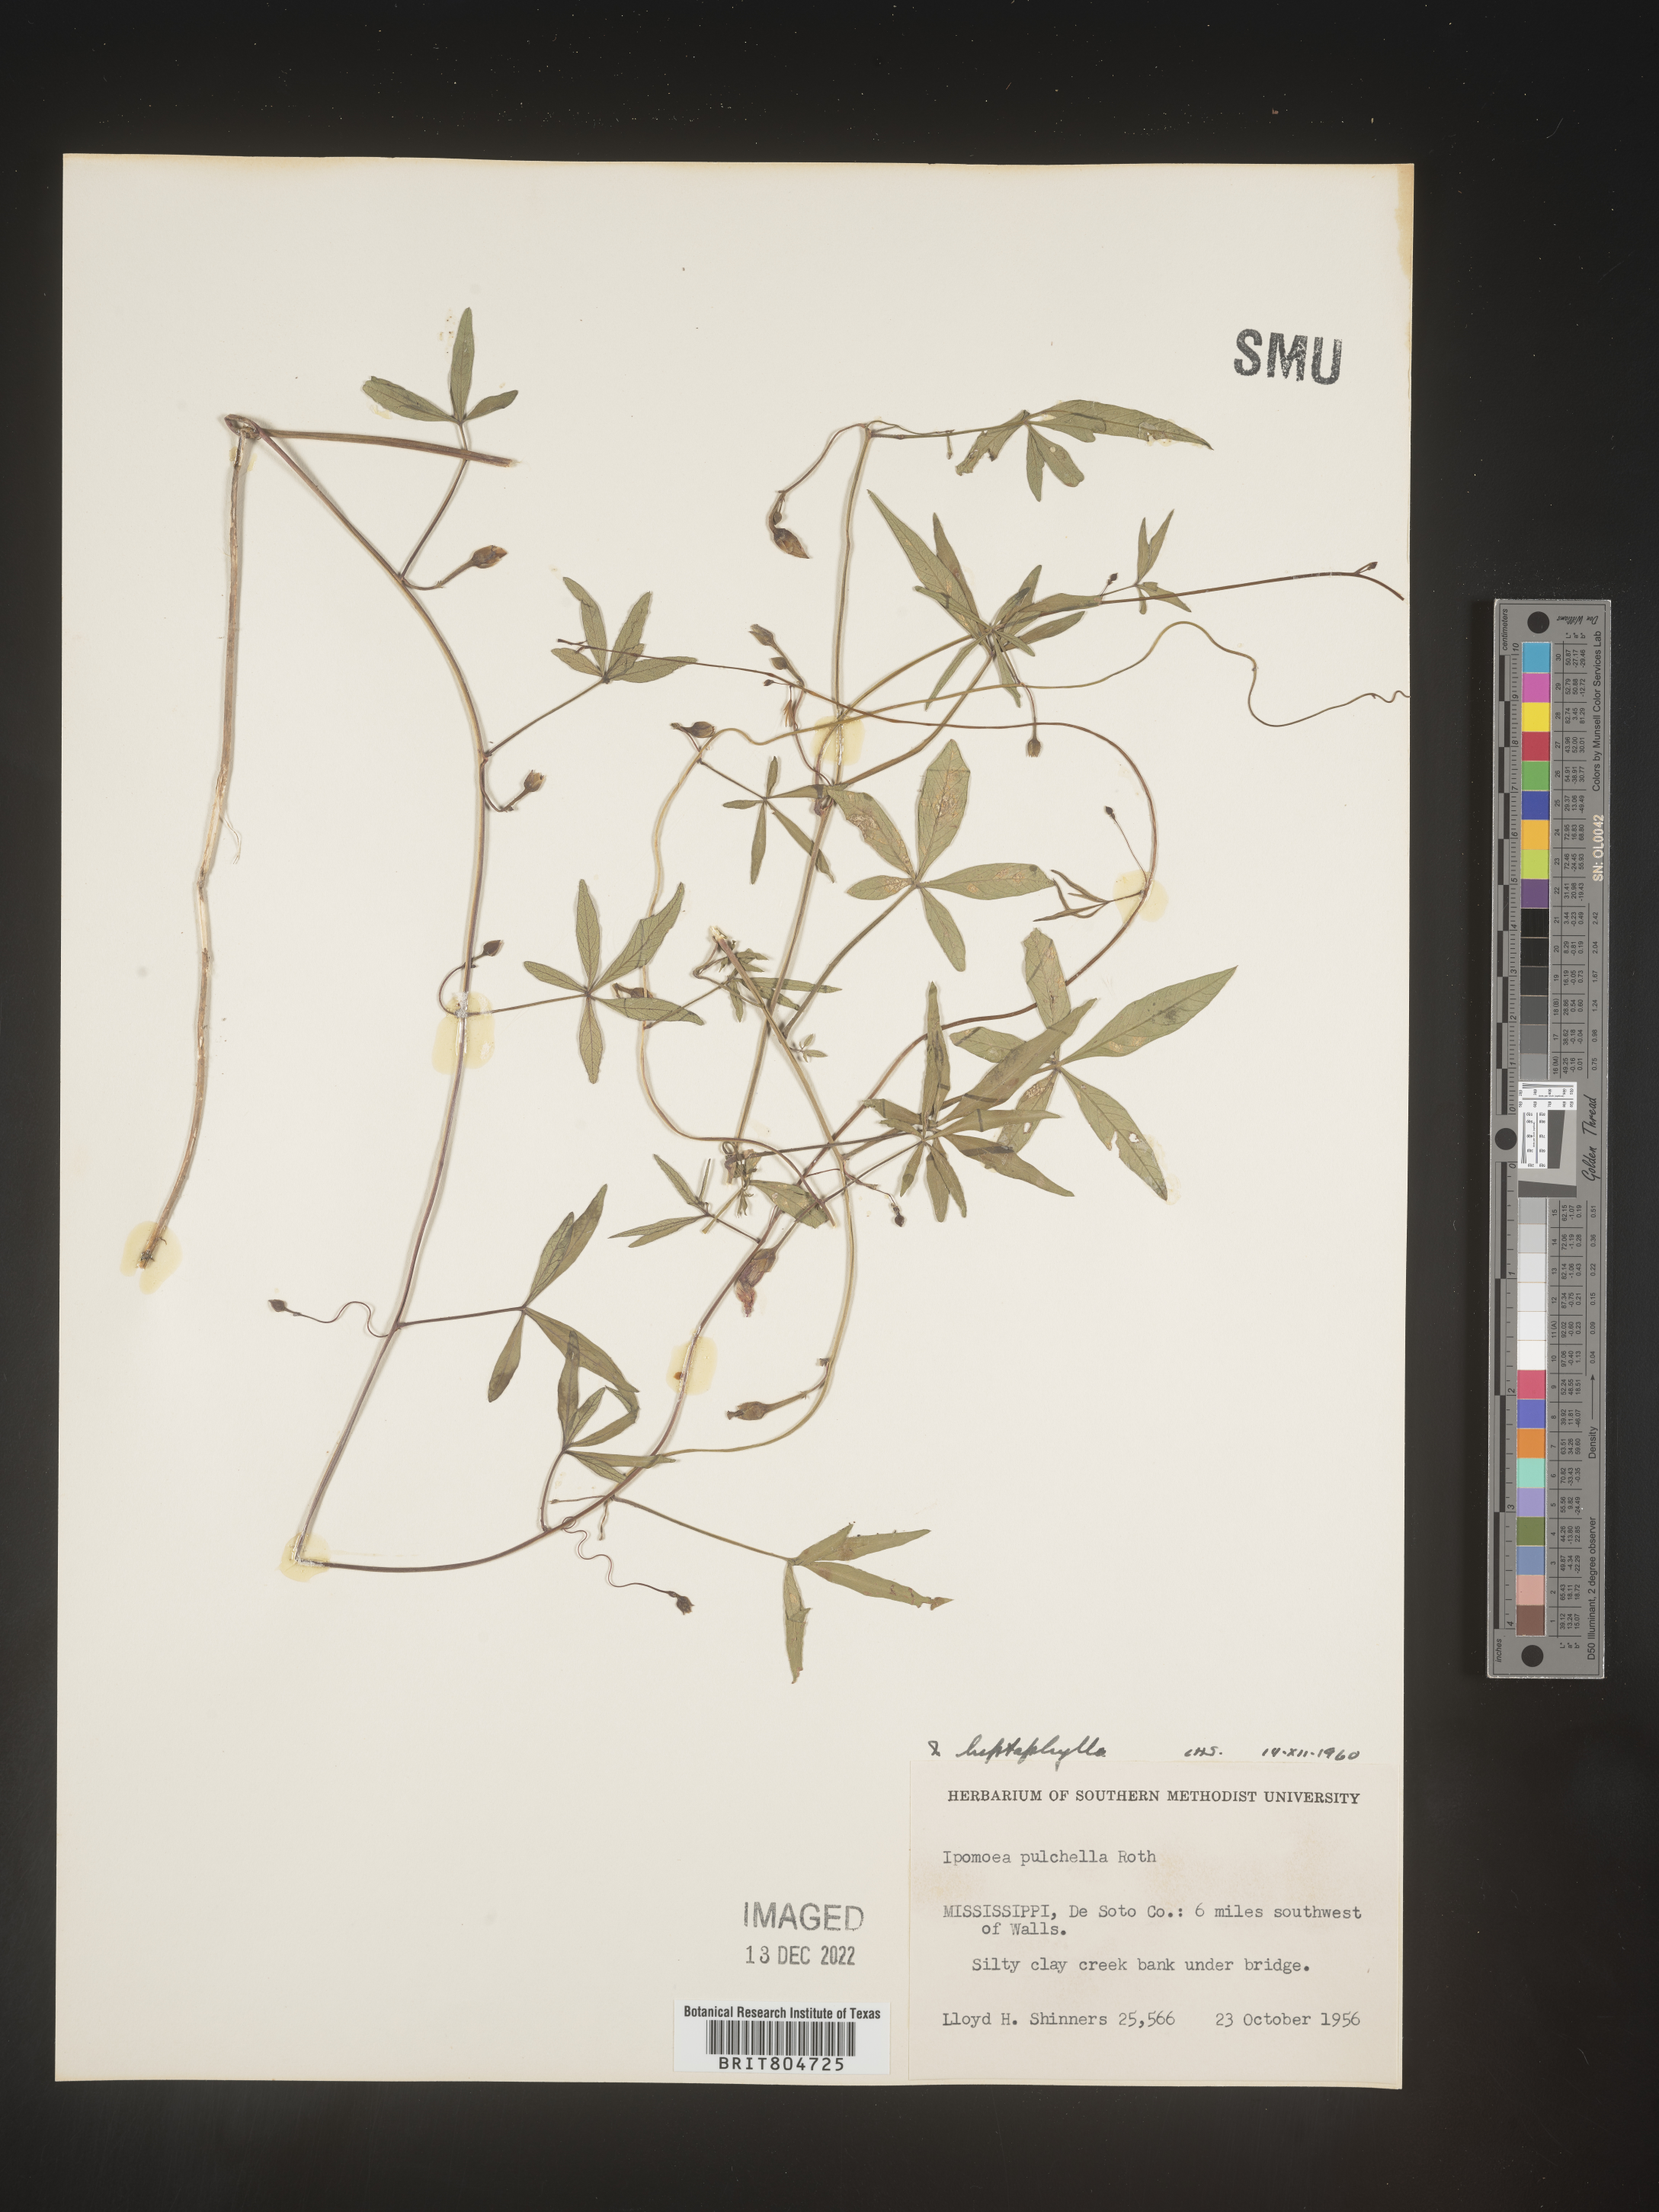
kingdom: Plantae
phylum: Tracheophyta
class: Magnoliopsida
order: Solanales
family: Convolvulaceae
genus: Ipomoea
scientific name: Ipomoea tenuipes
